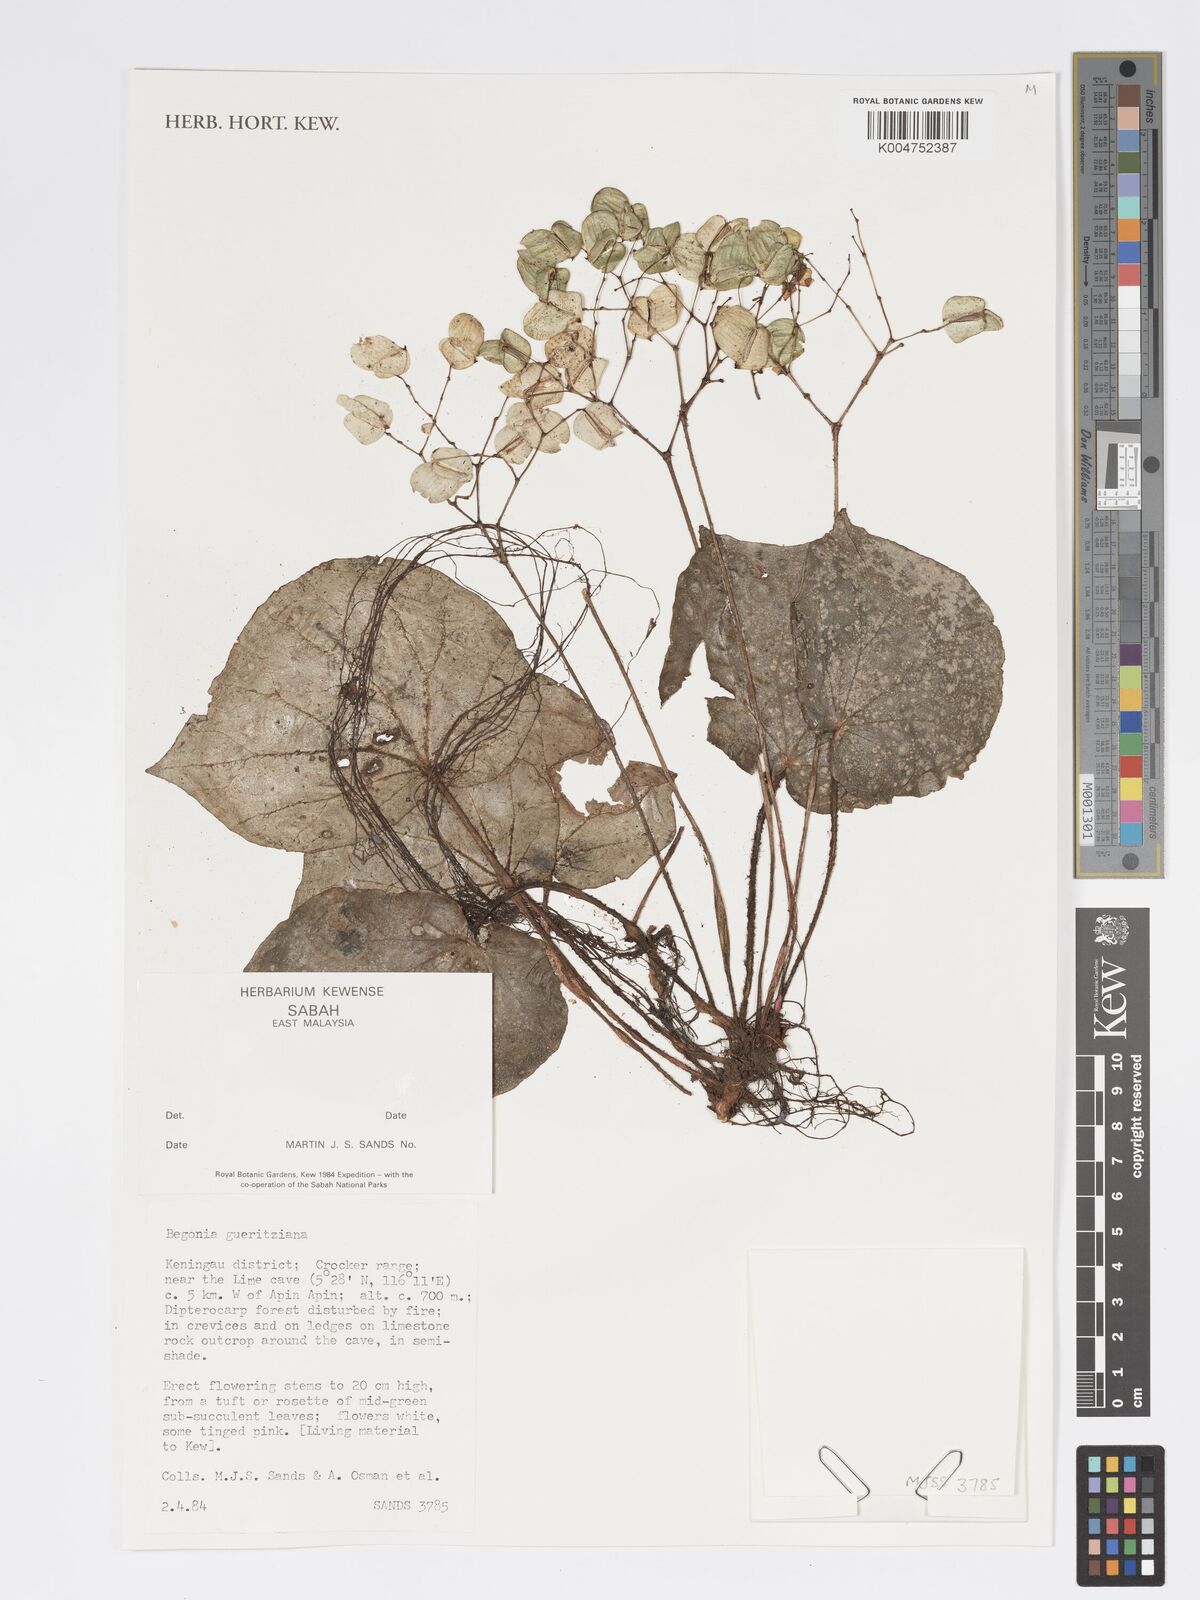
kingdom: Plantae
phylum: Tracheophyta
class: Magnoliopsida
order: Cucurbitales
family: Begoniaceae
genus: Begonia
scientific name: Begonia gueritziana
